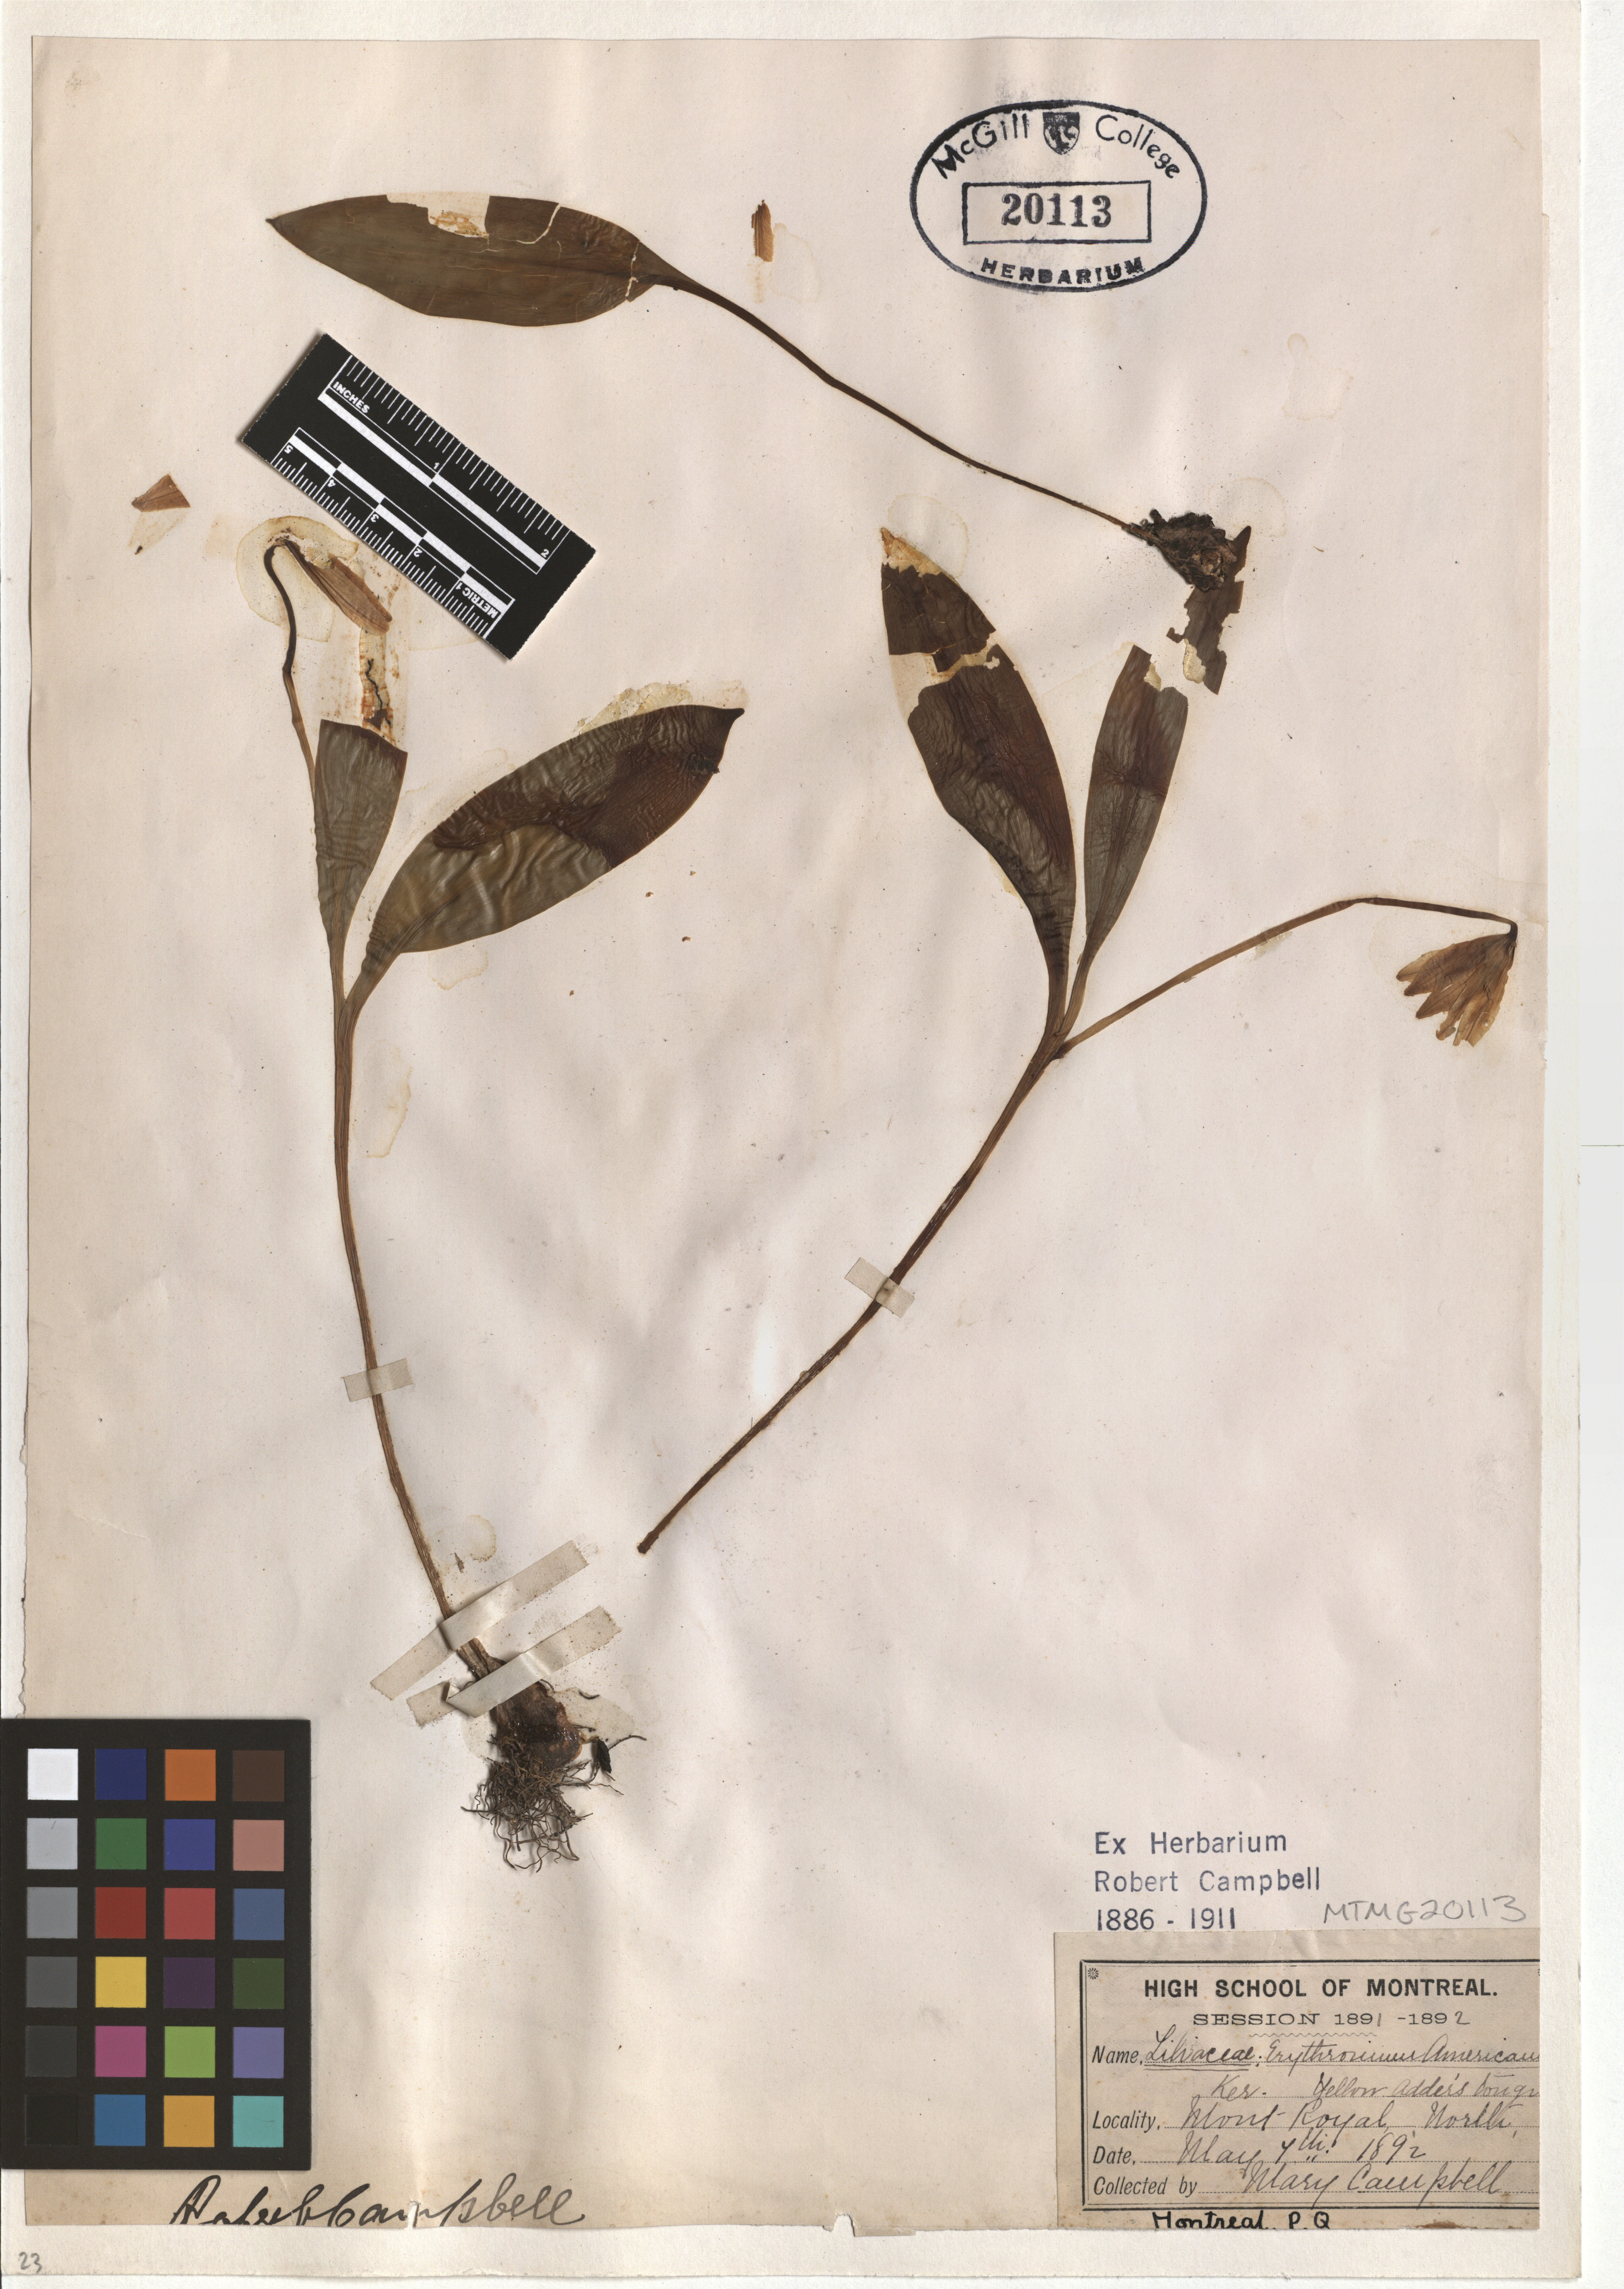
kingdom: Plantae
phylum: Tracheophyta
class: Liliopsida
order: Liliales
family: Liliaceae
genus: Erythronium
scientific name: Erythronium americanum
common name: Yellow adder's-tongue
